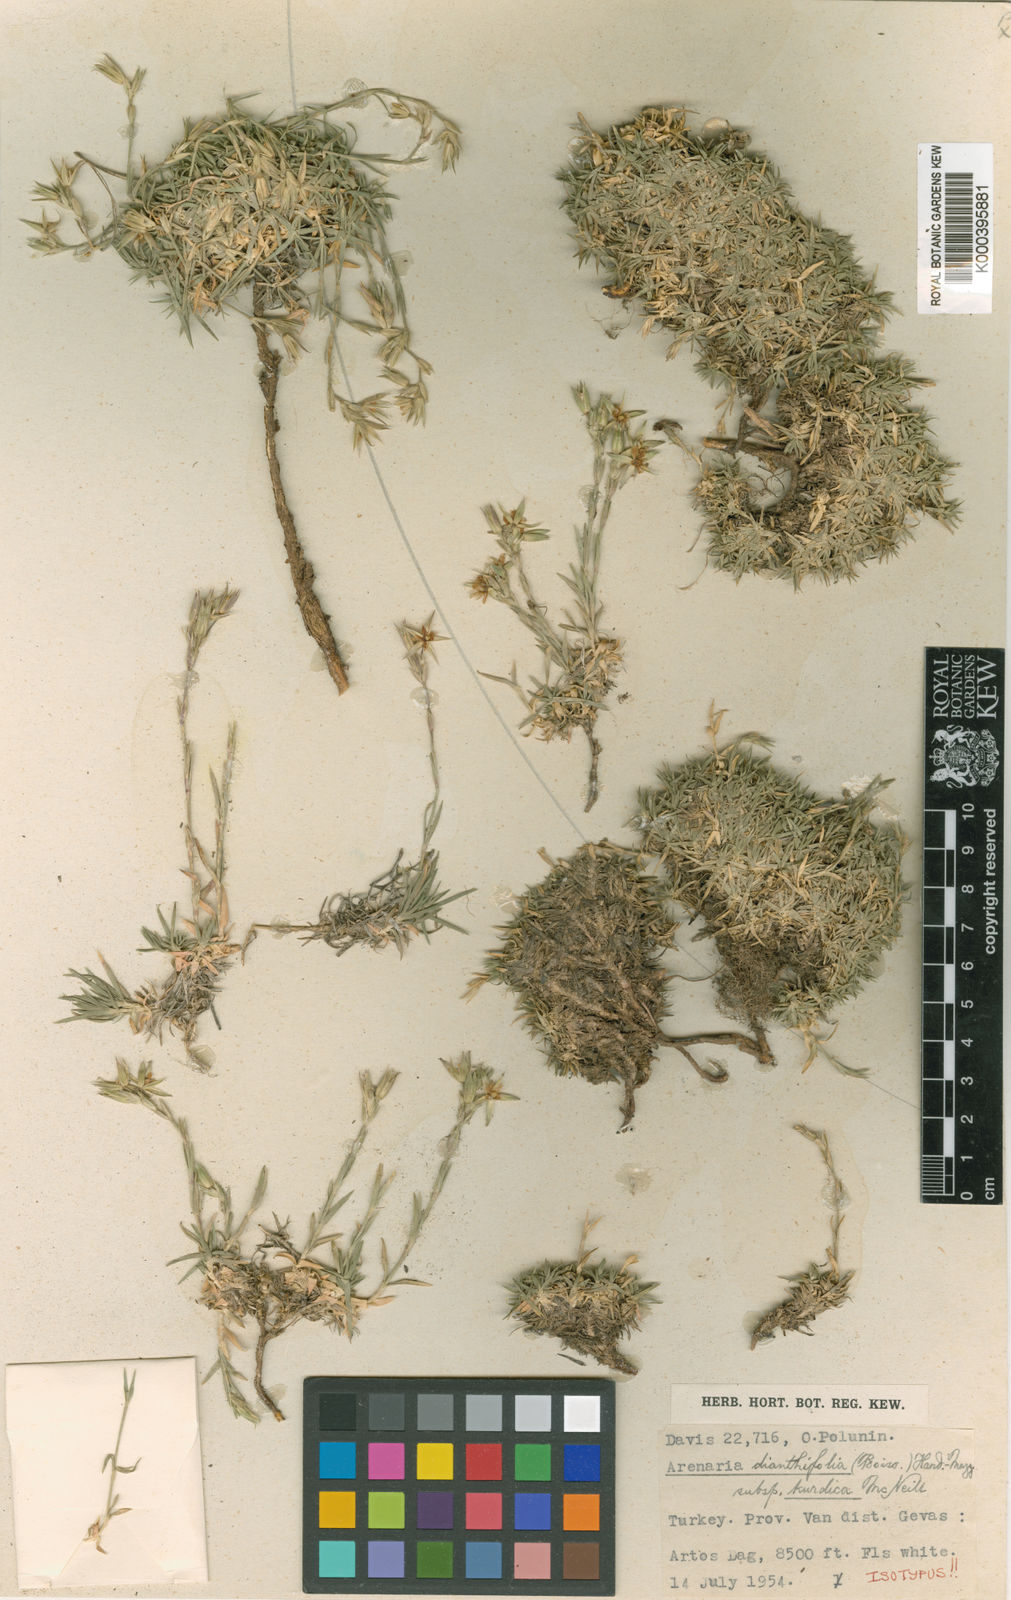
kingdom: Plantae
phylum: Tracheophyta
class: Magnoliopsida
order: Caryophyllales
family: Caryophyllaceae
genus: Arenaria
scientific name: Arenaria
